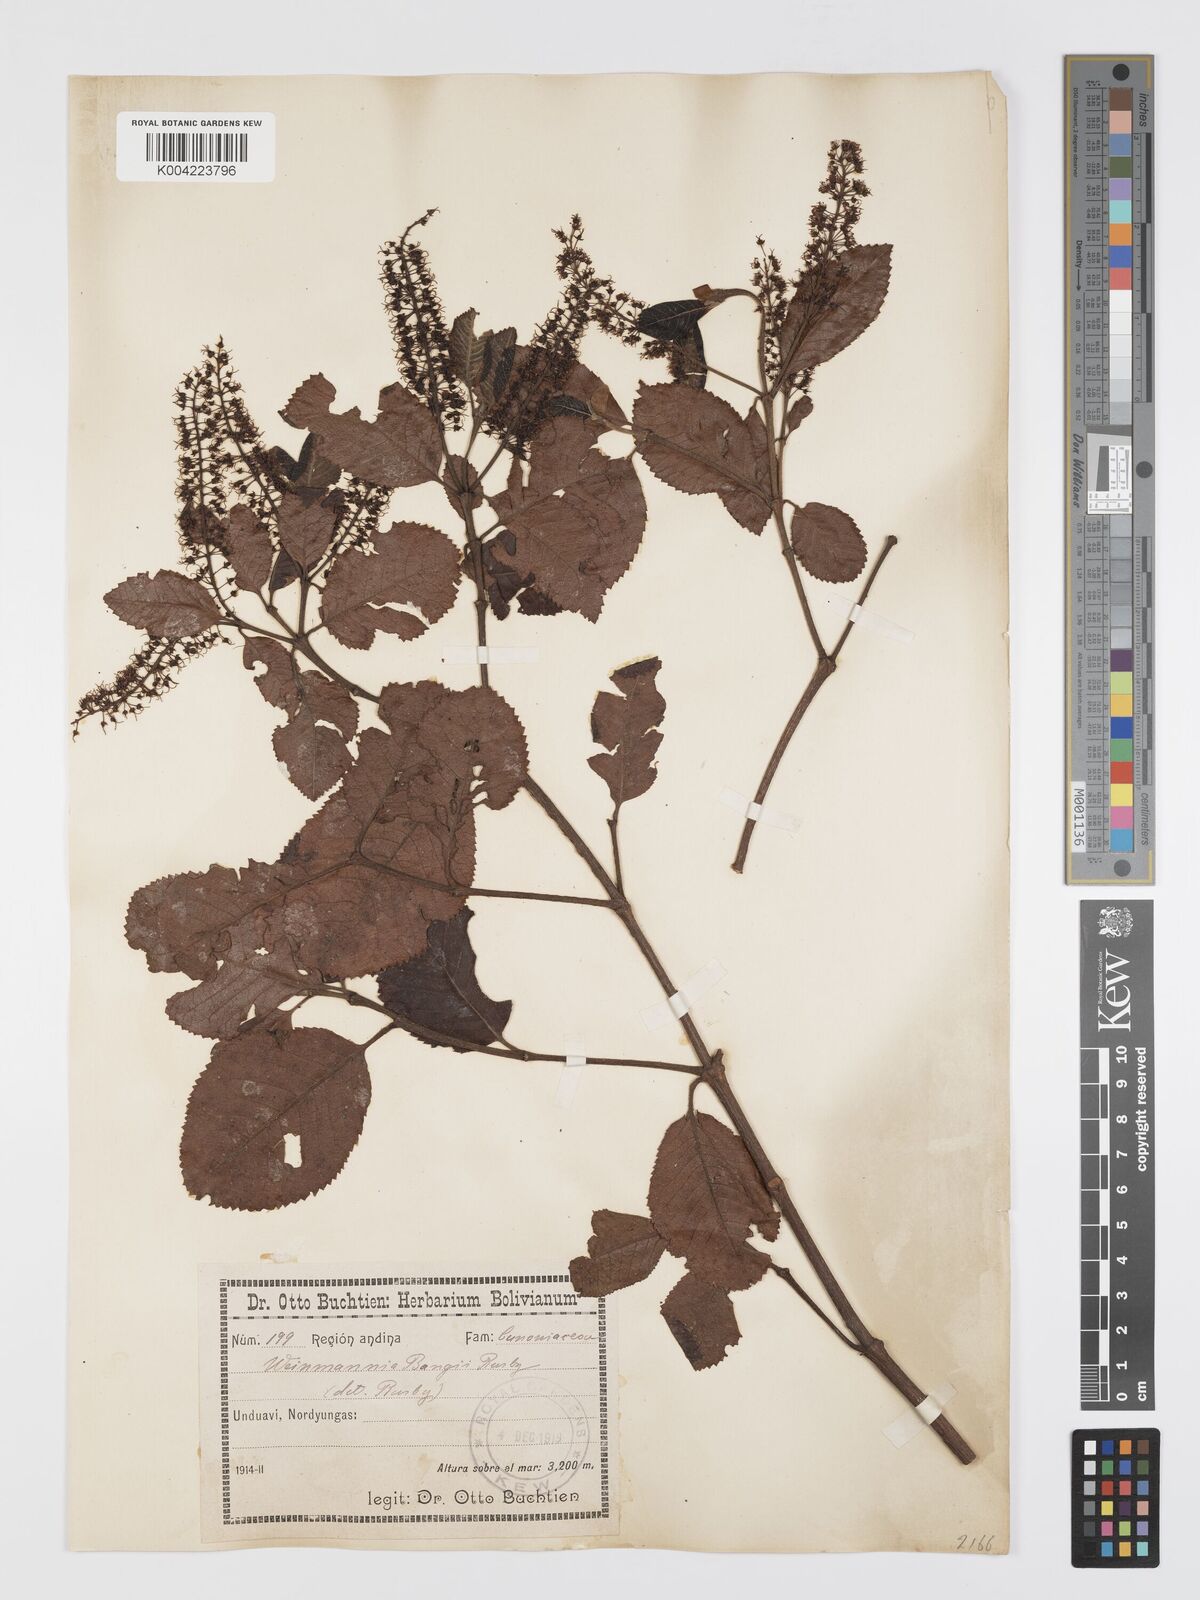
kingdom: Plantae
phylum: Tracheophyta
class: Magnoliopsida
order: Oxalidales
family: Cunoniaceae
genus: Weinmannia
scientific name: Weinmannia bangii
